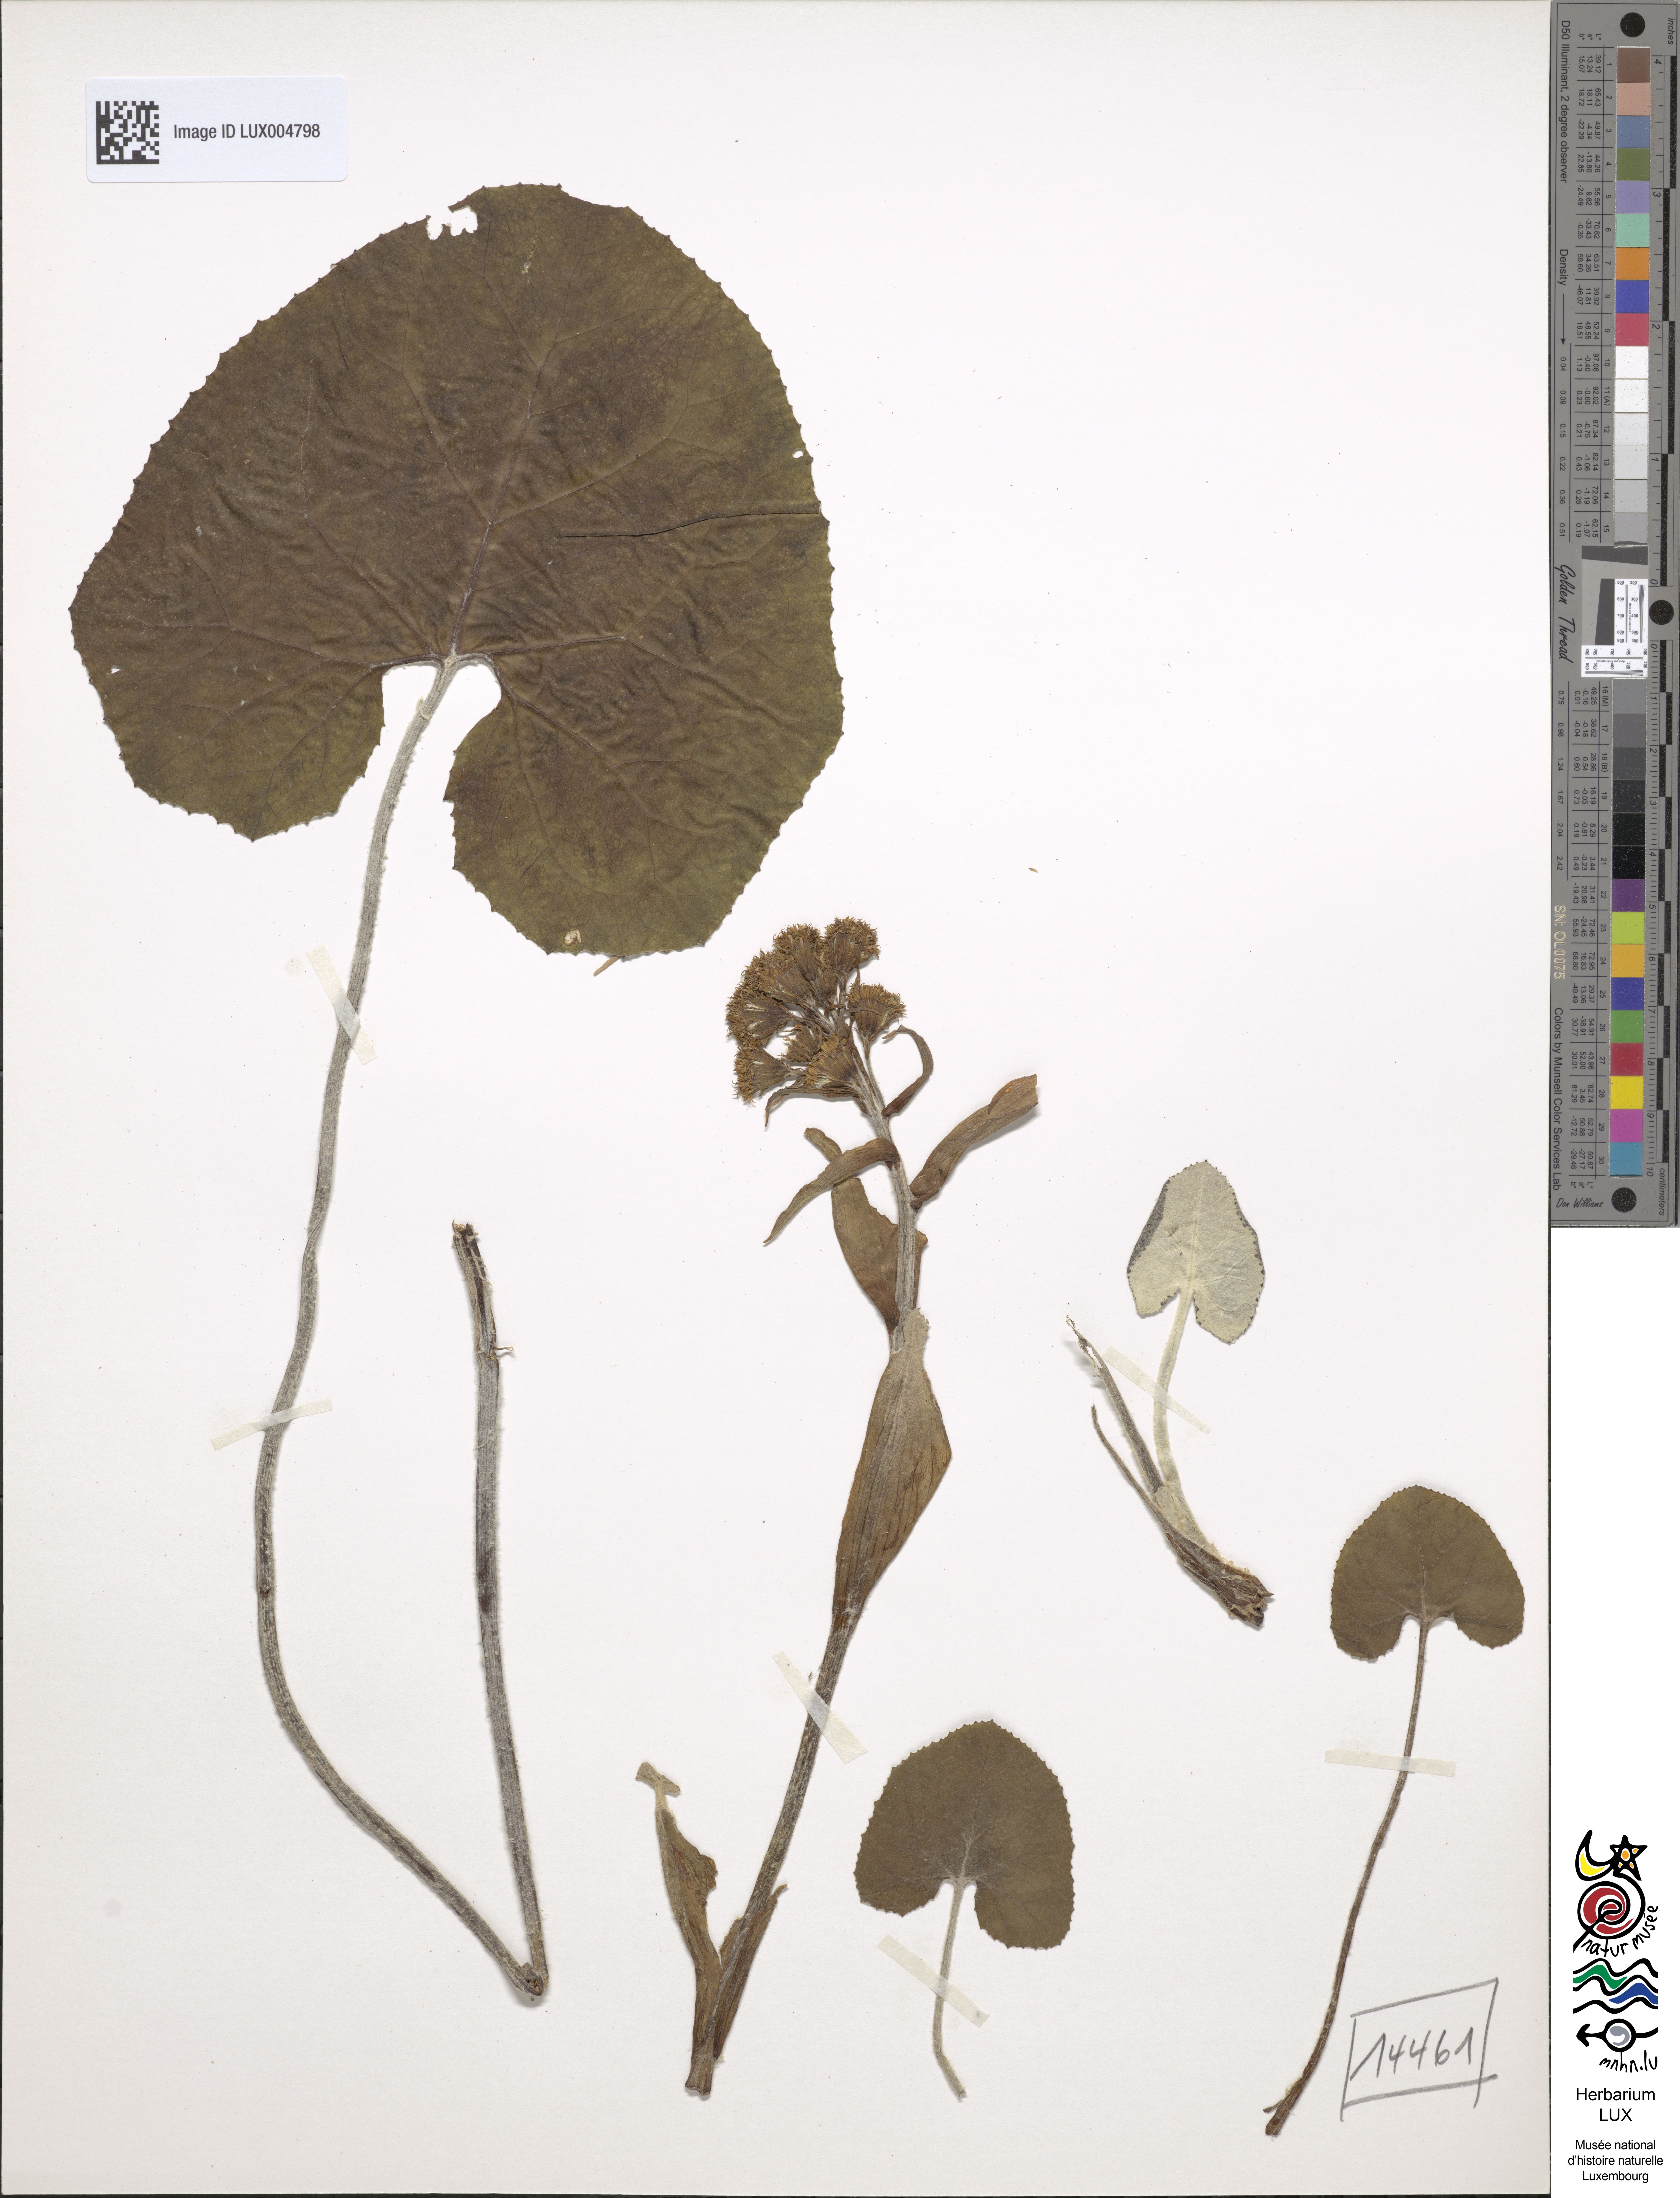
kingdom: Plantae
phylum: Tracheophyta
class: Magnoliopsida
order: Asterales
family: Asteraceae
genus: Petasites
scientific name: Petasites paradoxus
